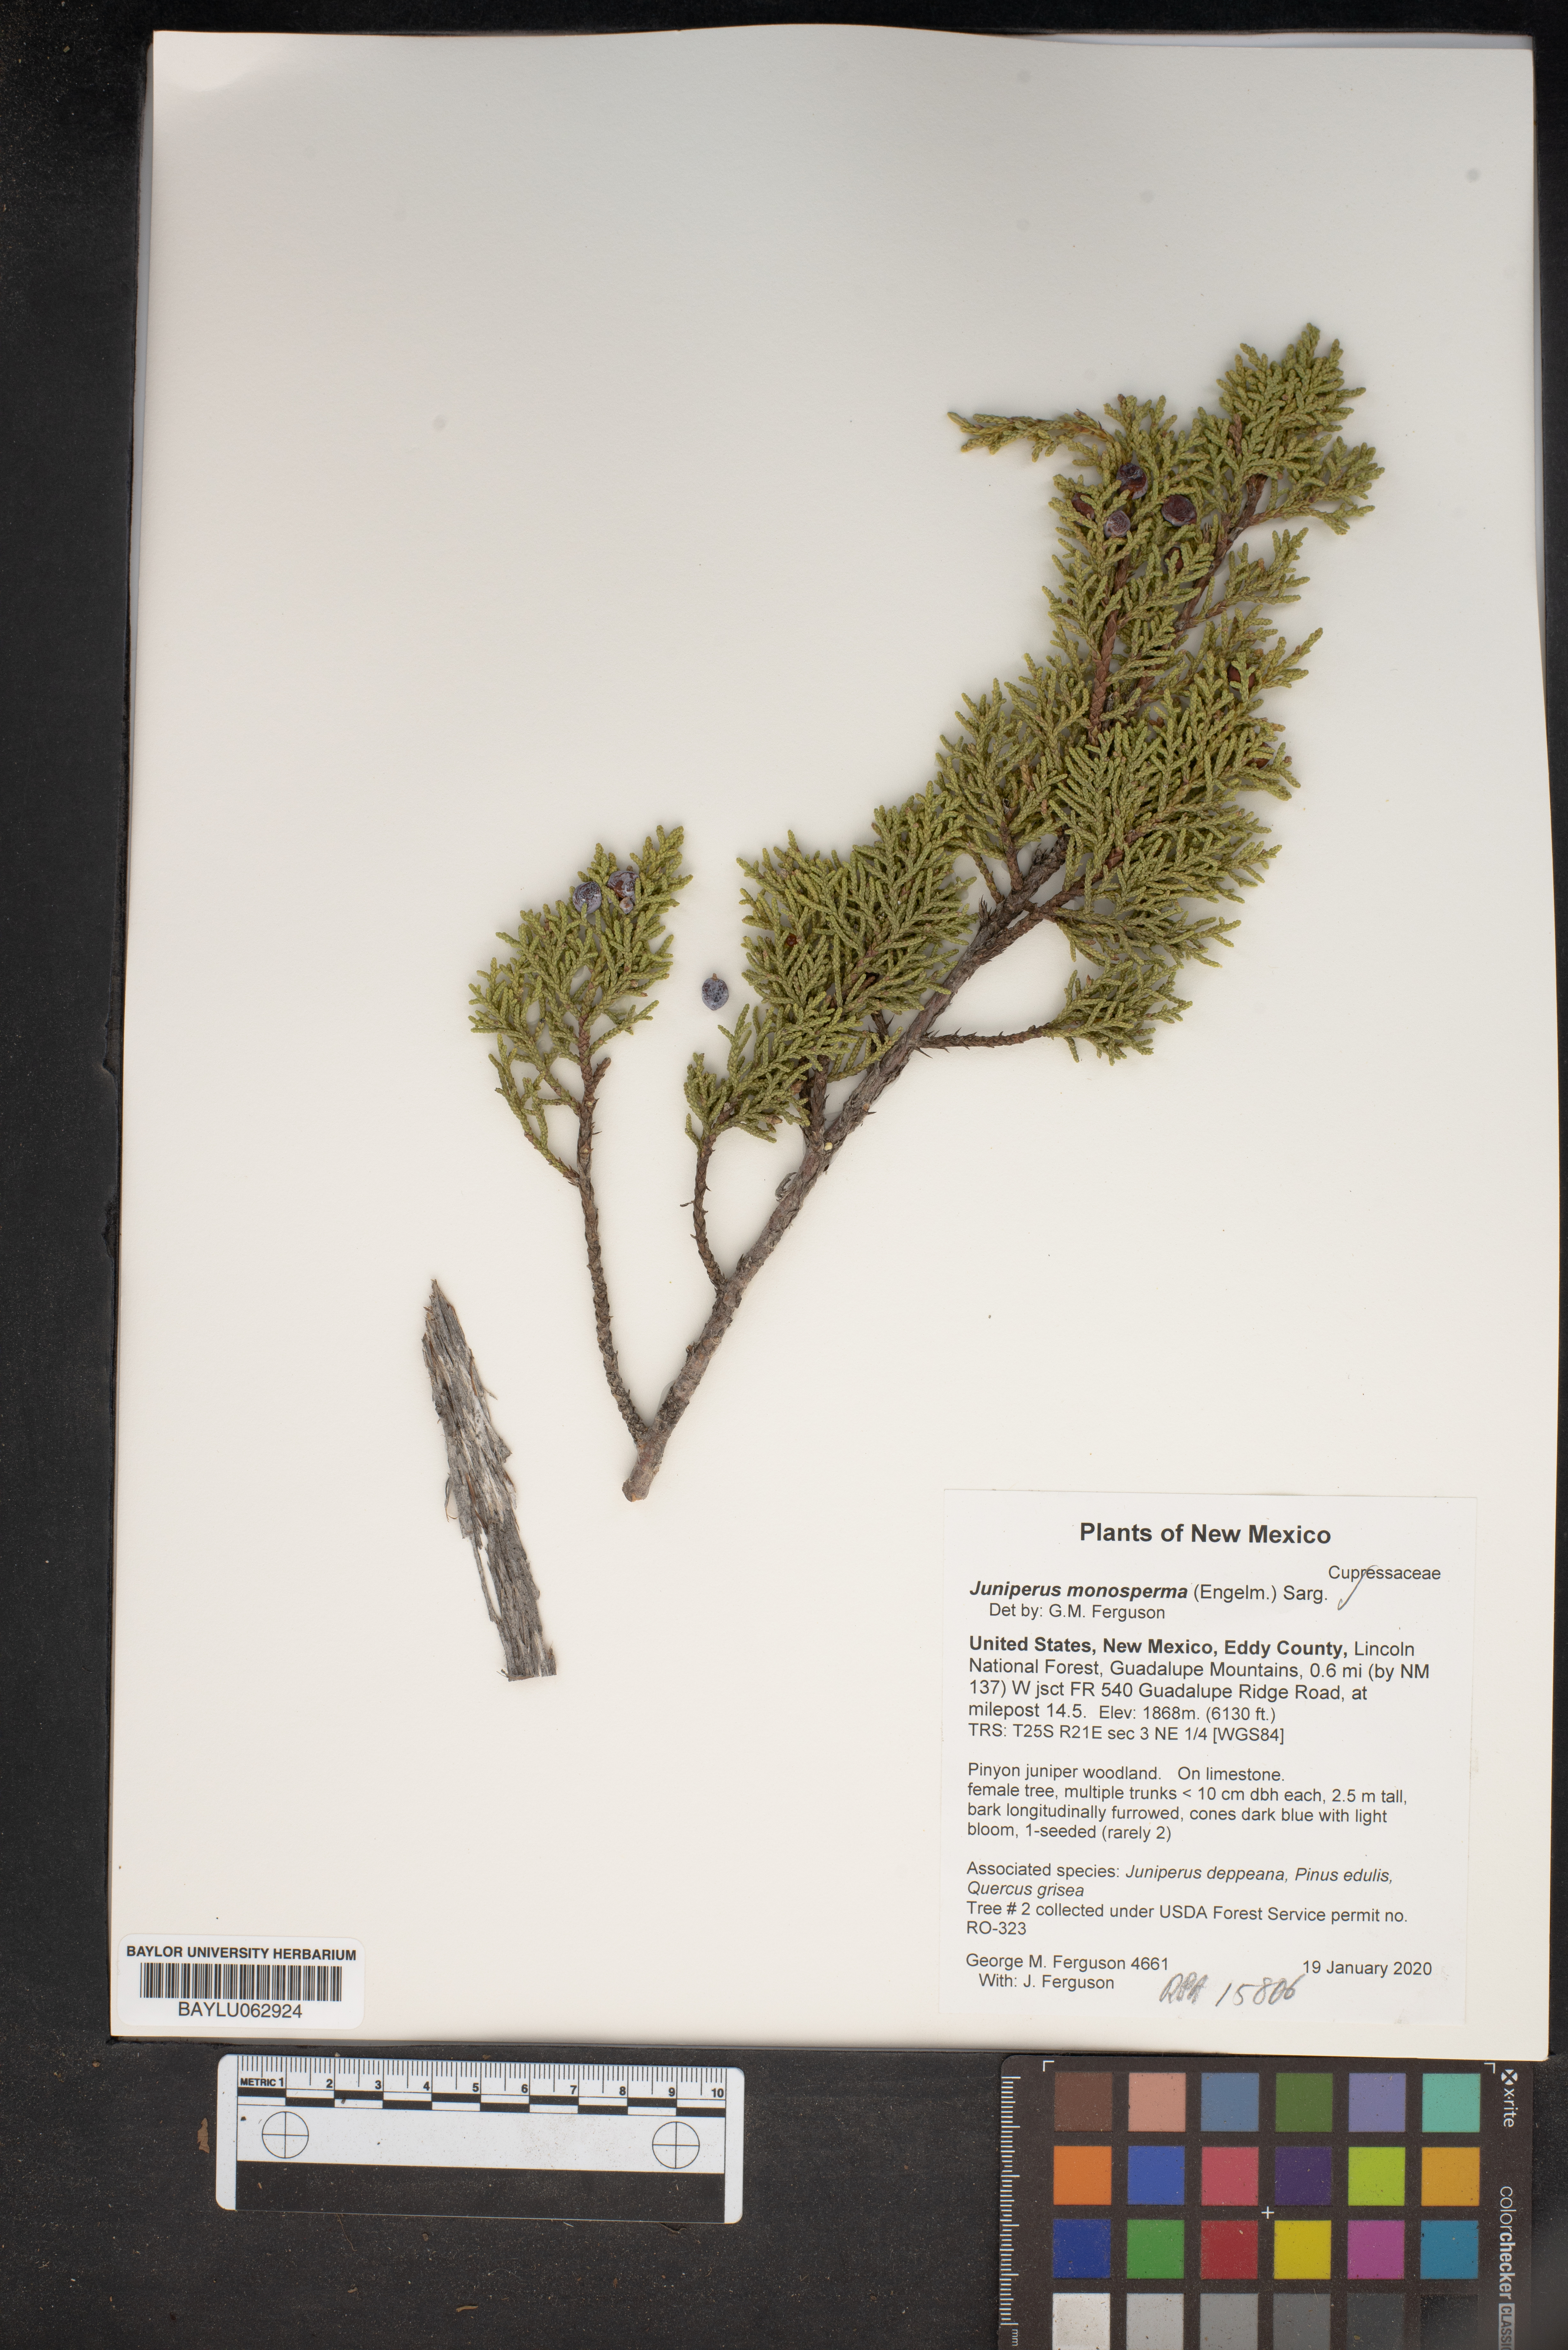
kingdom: Plantae
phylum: Tracheophyta
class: Pinopsida
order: Pinales
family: Cupressaceae
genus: Juniperus
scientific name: Juniperus monosperma
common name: One-seed juniper
